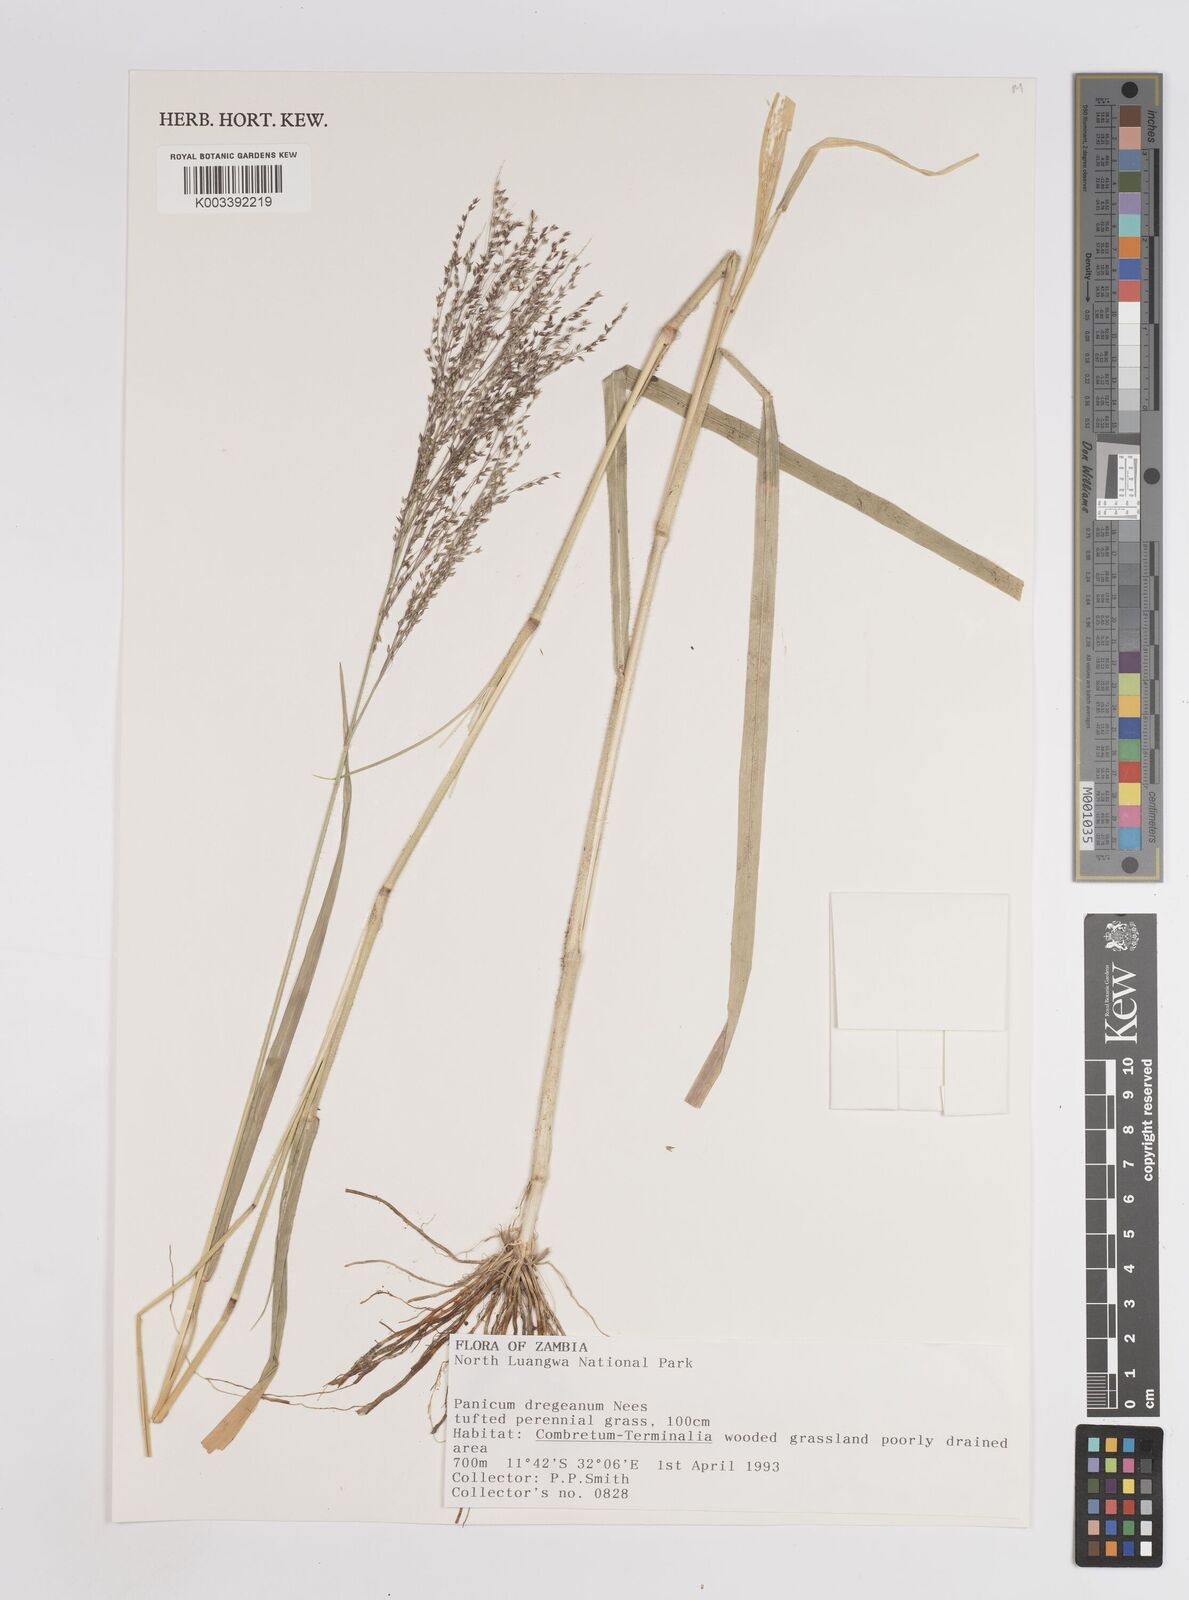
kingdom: Plantae
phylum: Tracheophyta
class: Liliopsida
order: Poales
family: Poaceae
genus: Panicum
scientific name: Panicum dregeanum
